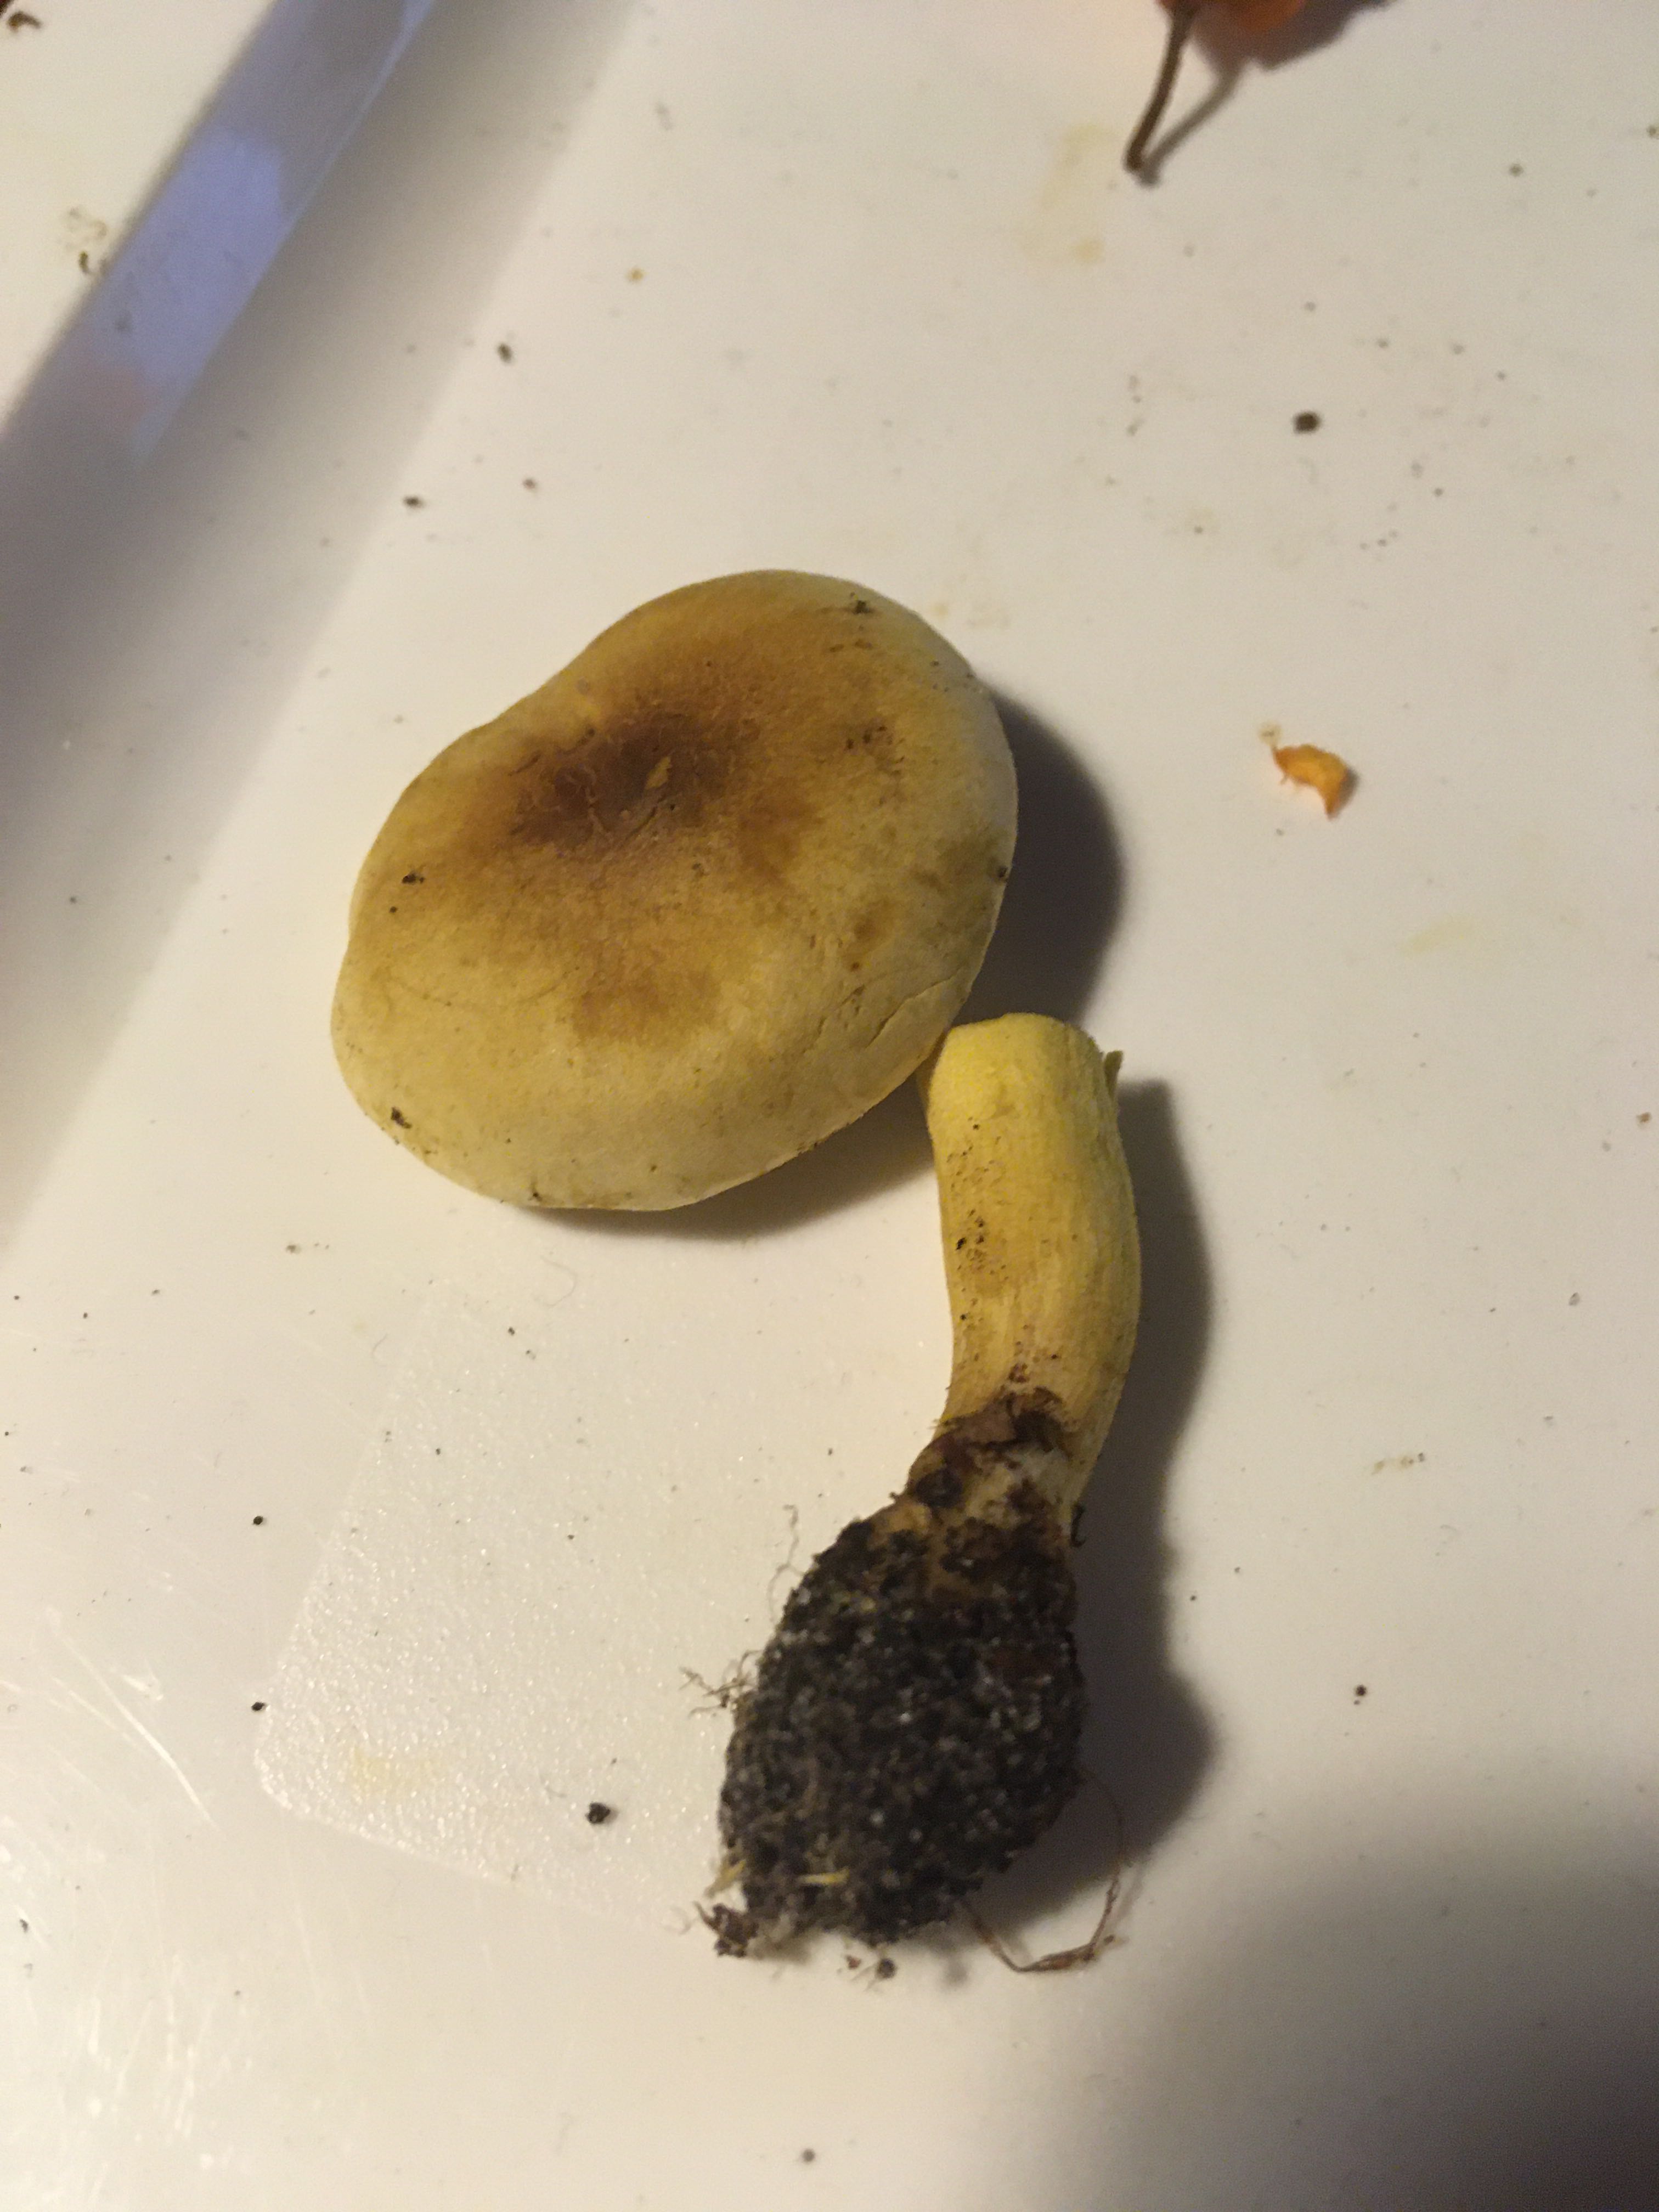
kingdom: Fungi
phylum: Basidiomycota
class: Agaricomycetes
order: Agaricales
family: Tricholomataceae
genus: Tricholoma
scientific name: Tricholoma sulphureum
